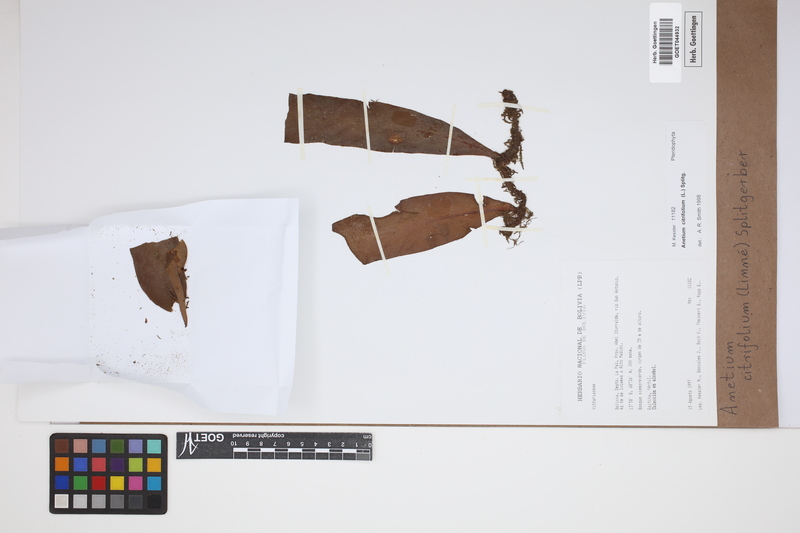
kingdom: Plantae
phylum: Tracheophyta
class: Polypodiopsida
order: Polypodiales
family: Pteridaceae
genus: Polytaenium
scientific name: Polytaenium citrifolium
